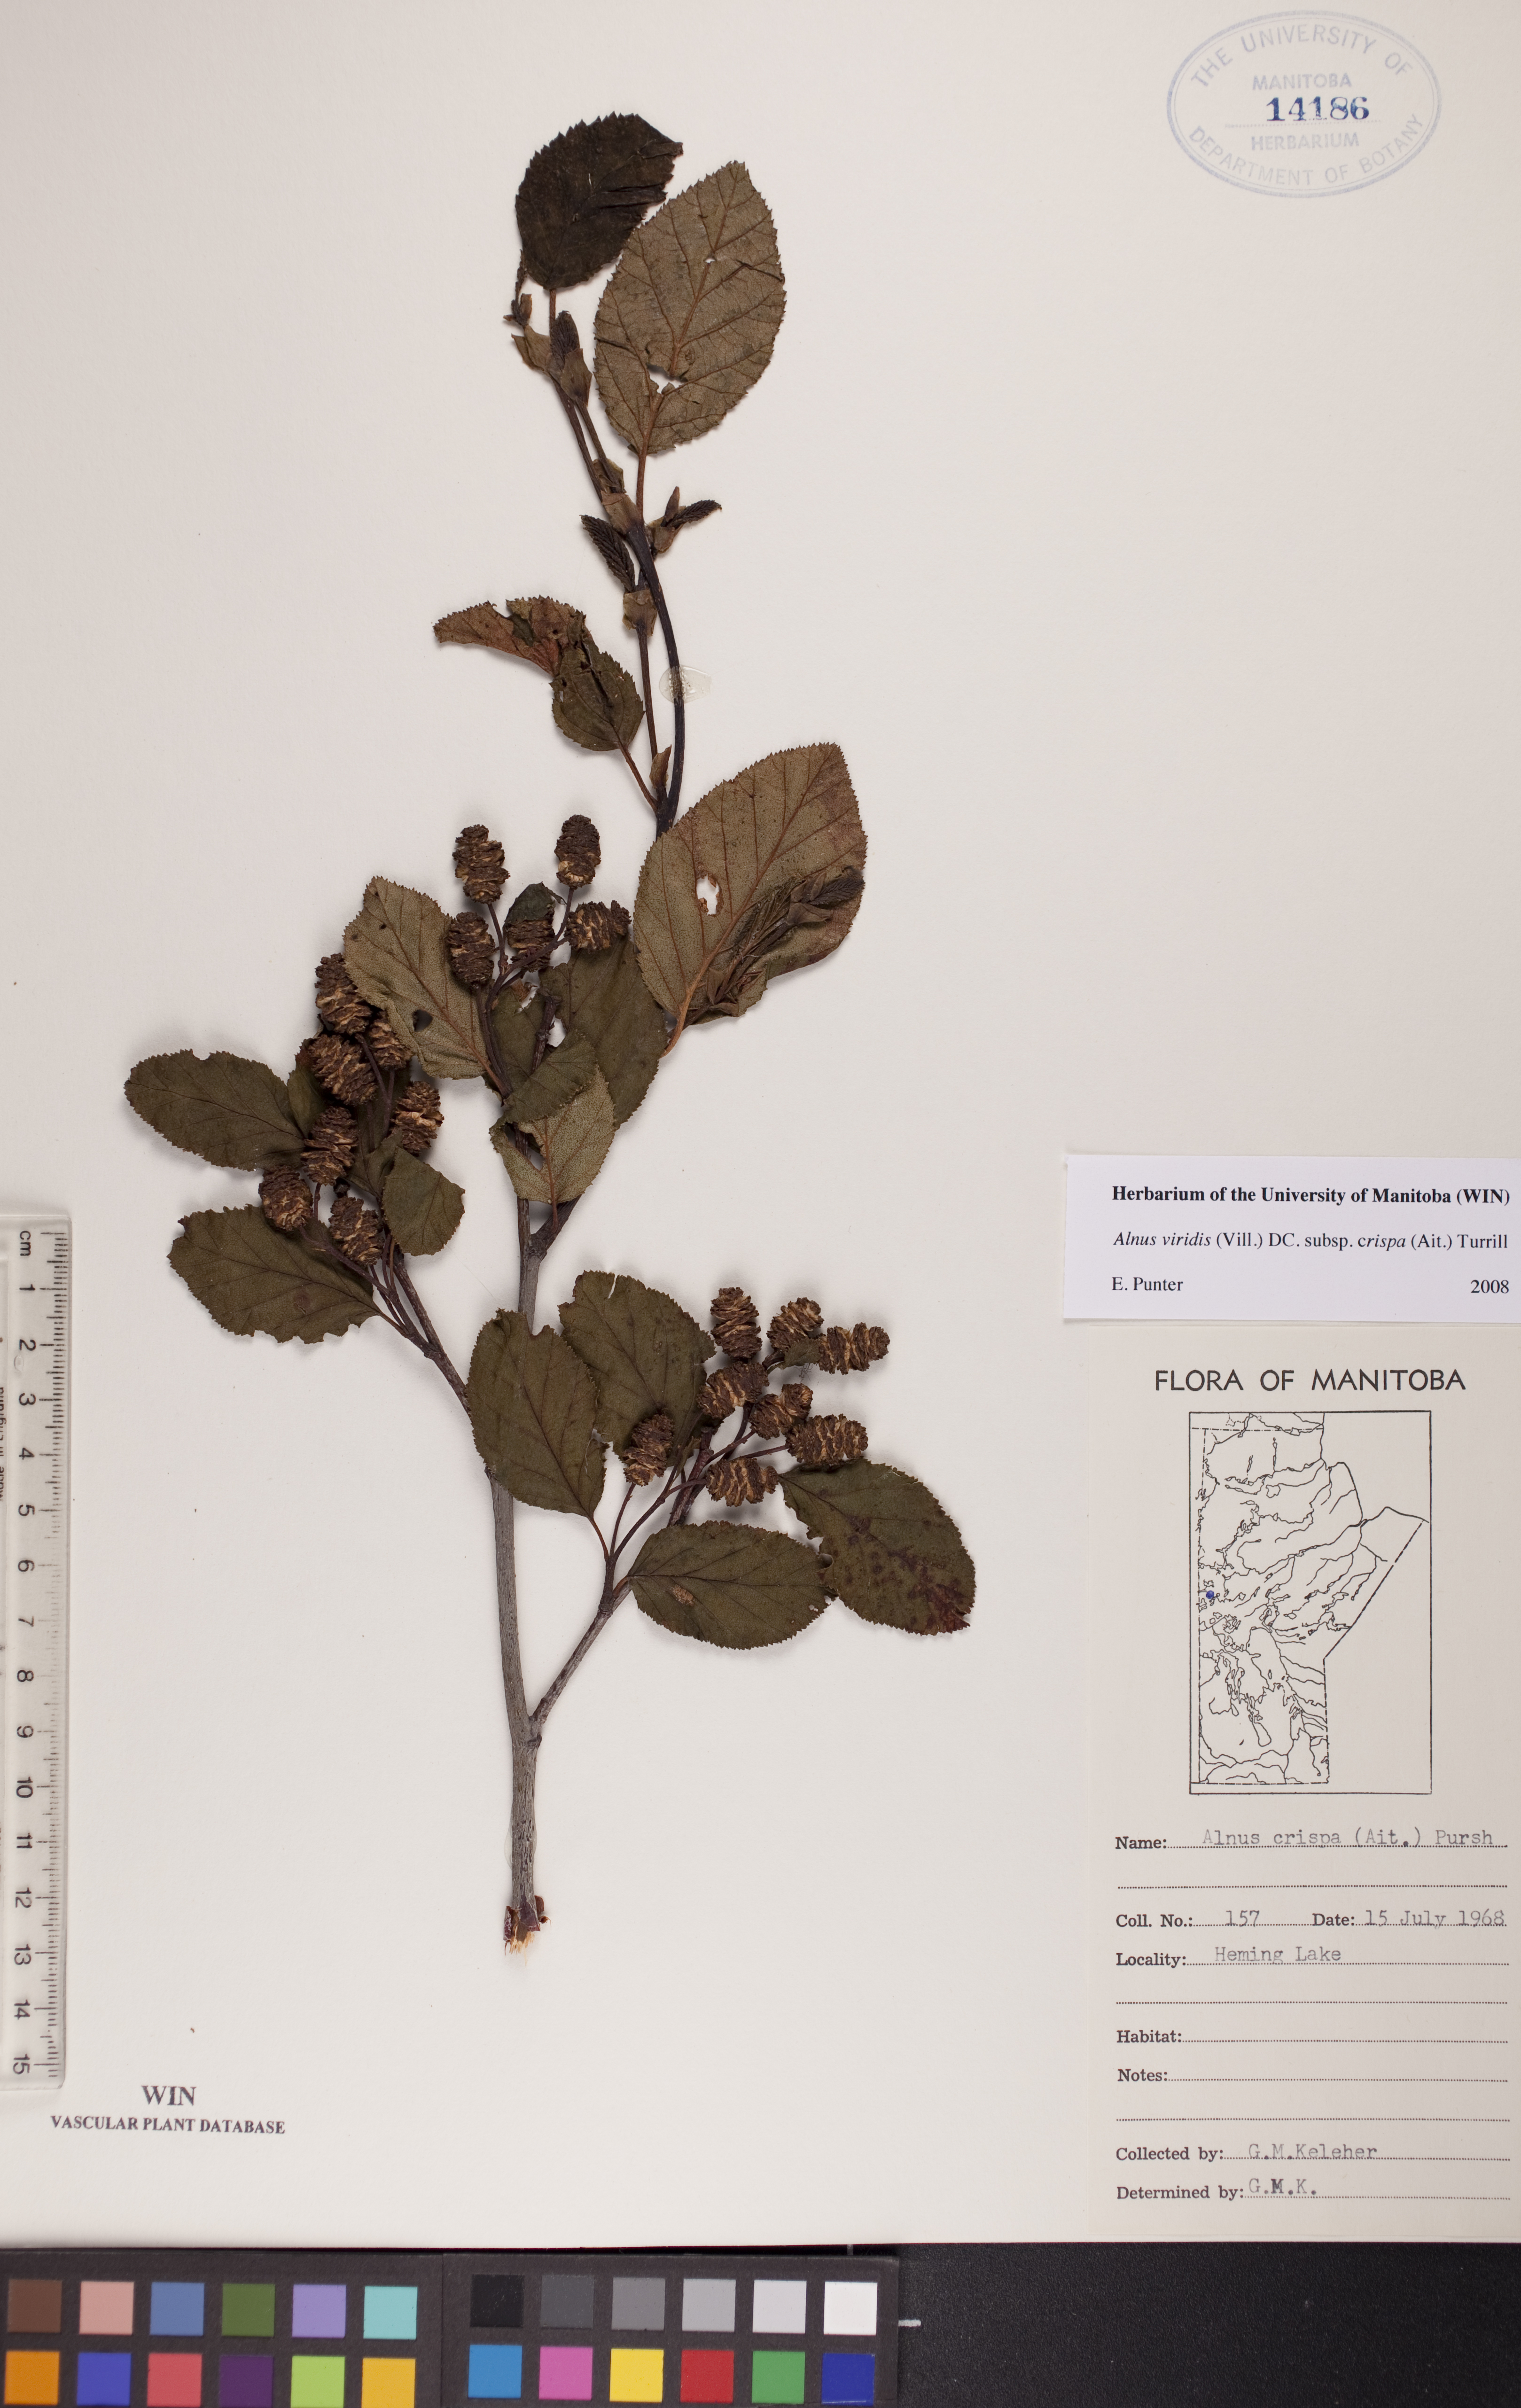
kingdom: Plantae
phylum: Tracheophyta
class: Magnoliopsida
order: Fagales
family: Betulaceae
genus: Alnus
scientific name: Alnus alnobetula
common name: Green alder
